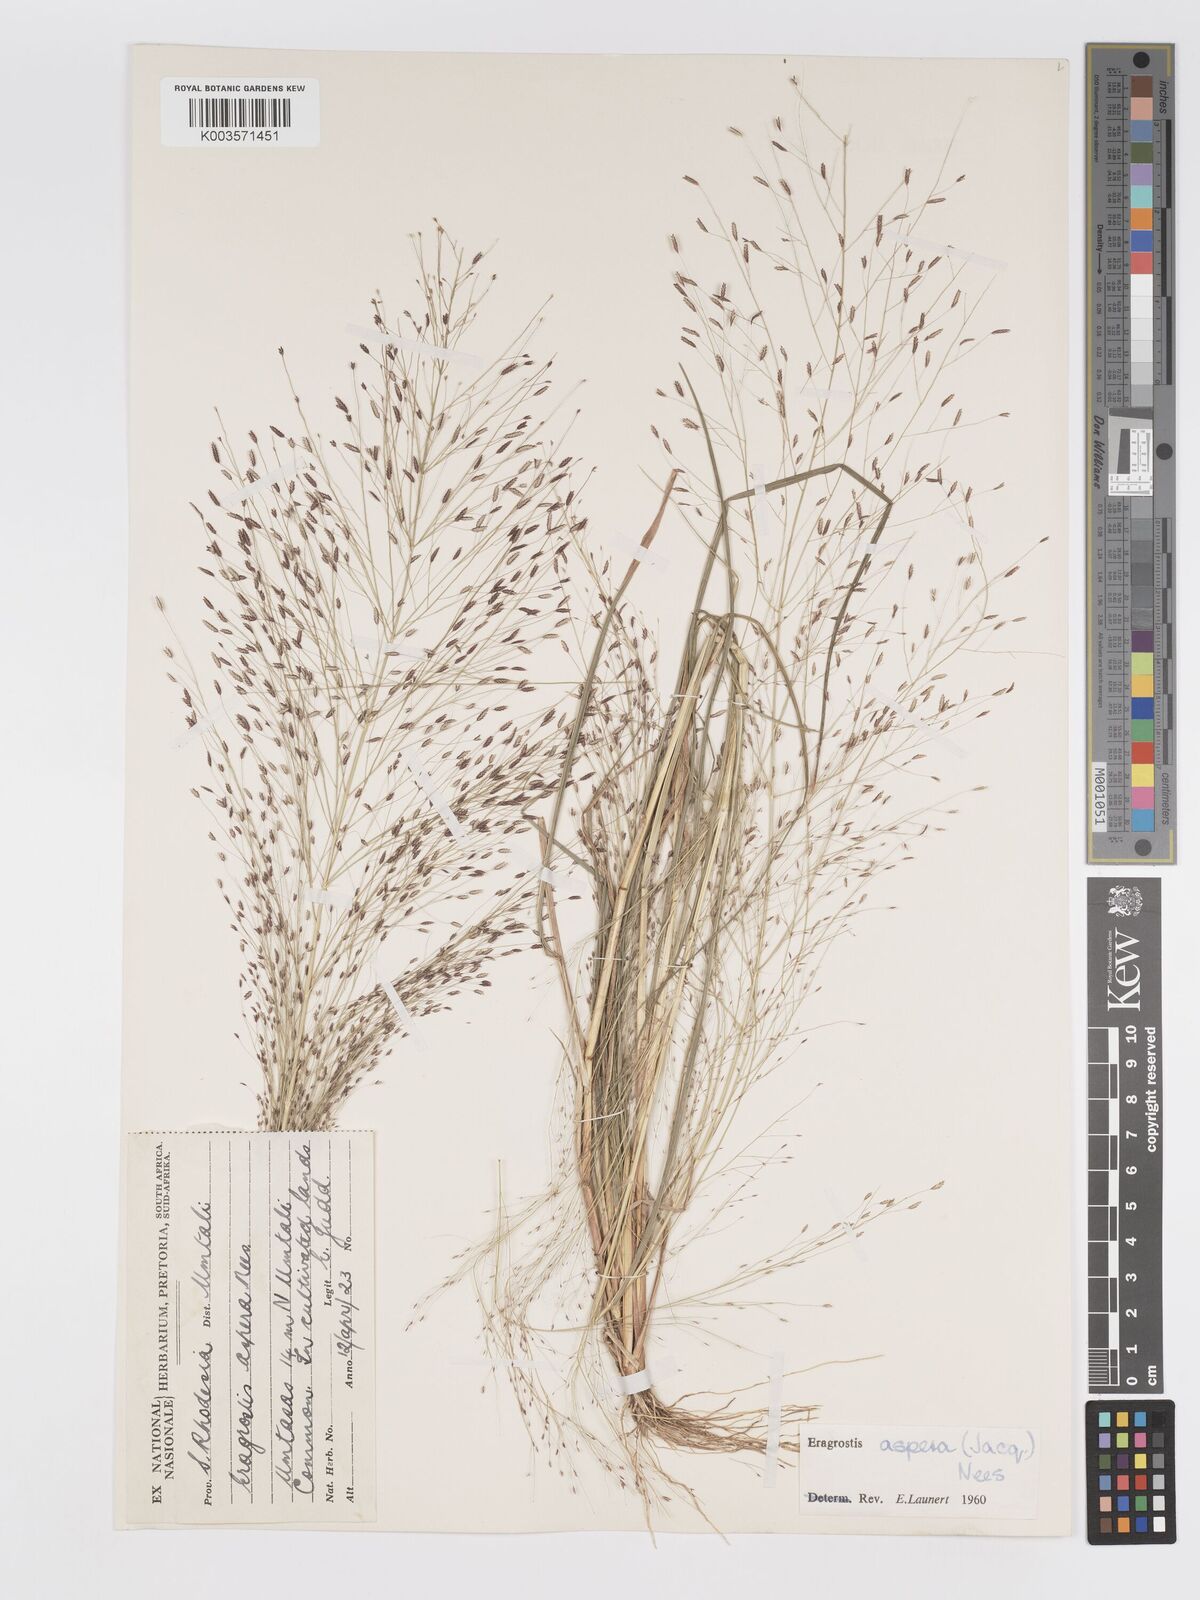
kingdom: Plantae
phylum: Tracheophyta
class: Liliopsida
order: Poales
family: Poaceae
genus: Eragrostis
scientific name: Eragrostis aspera
